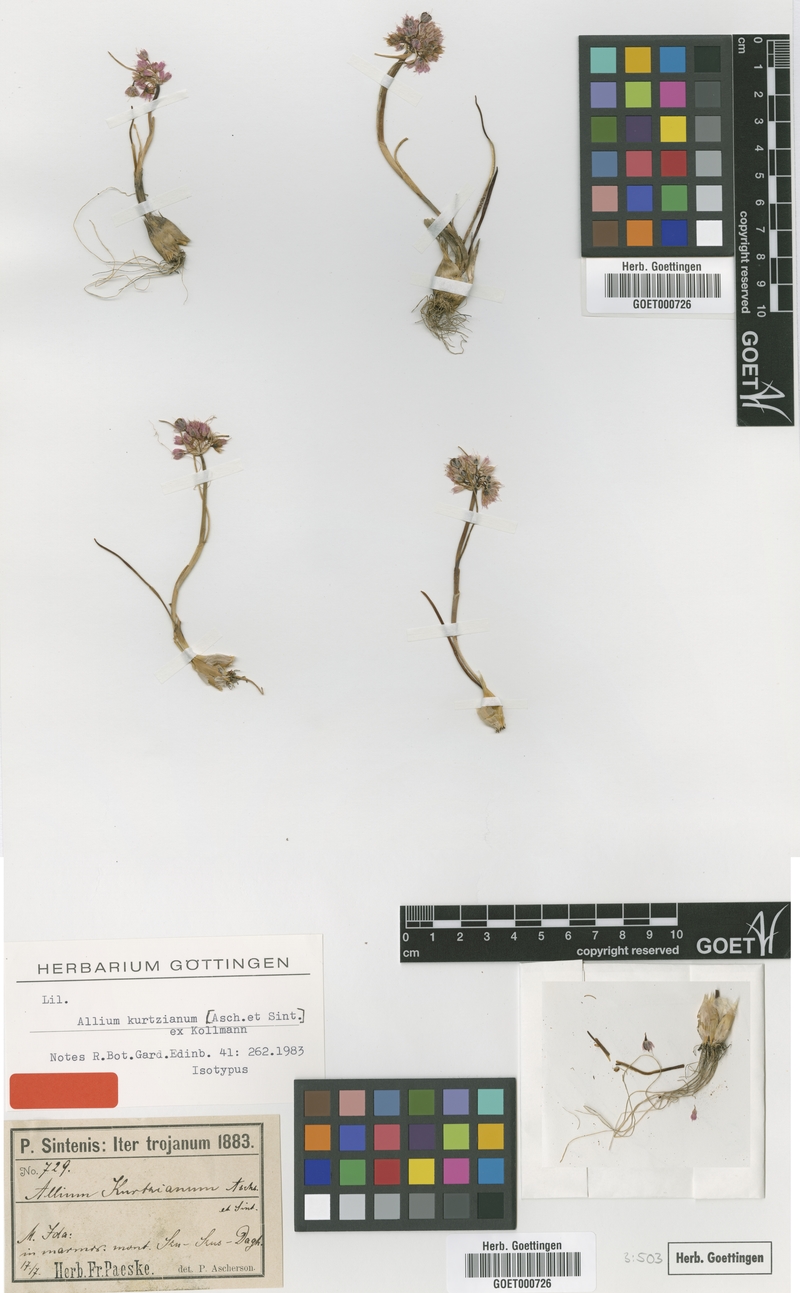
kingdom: Plantae
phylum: Tracheophyta
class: Liliopsida
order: Asparagales
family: Amaryllidaceae
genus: Allium
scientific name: Allium kurtzianum
